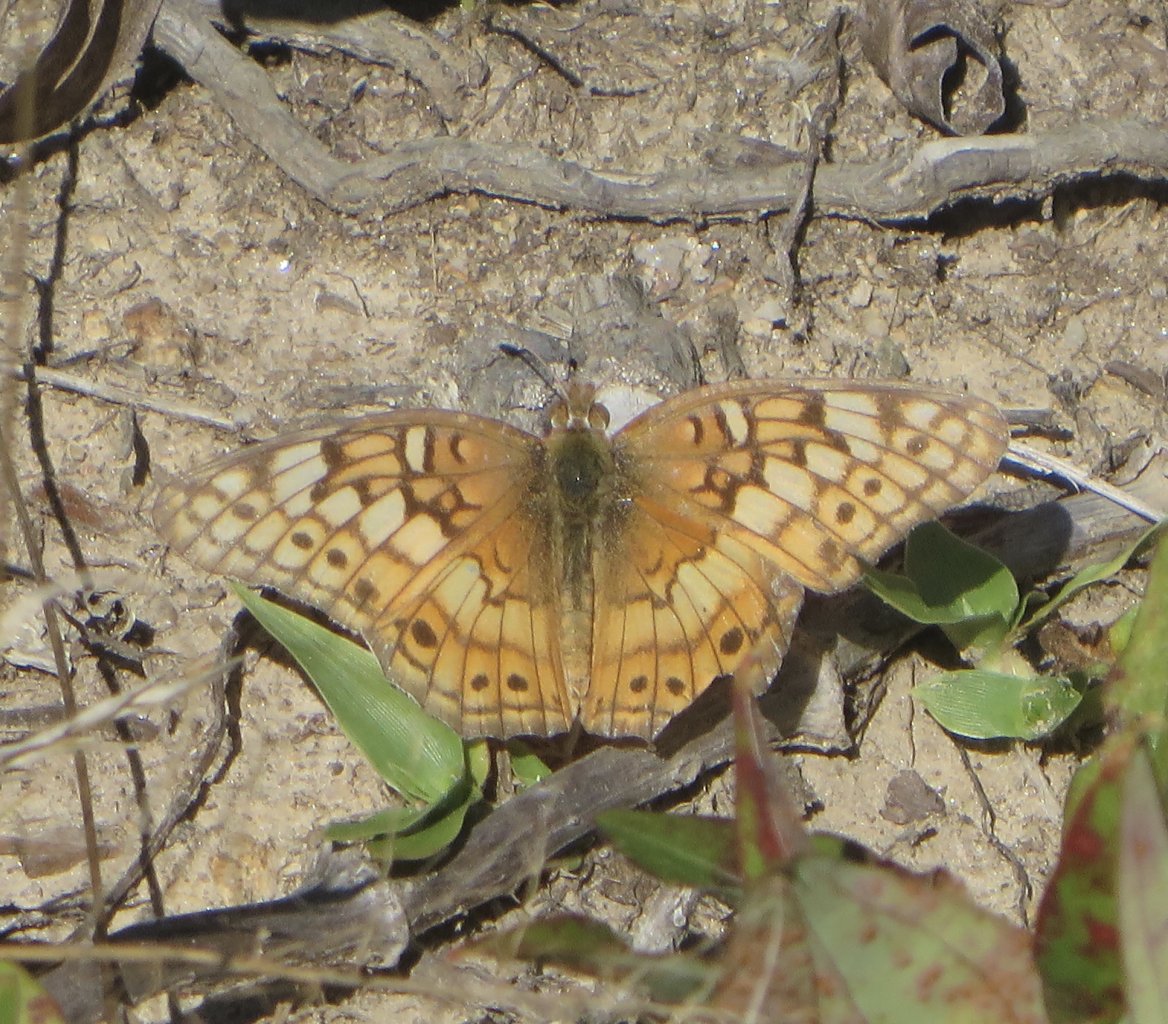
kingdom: Animalia
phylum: Arthropoda
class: Insecta
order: Lepidoptera
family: Nymphalidae
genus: Euptoieta
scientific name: Euptoieta claudia
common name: Variegated Fritillary
